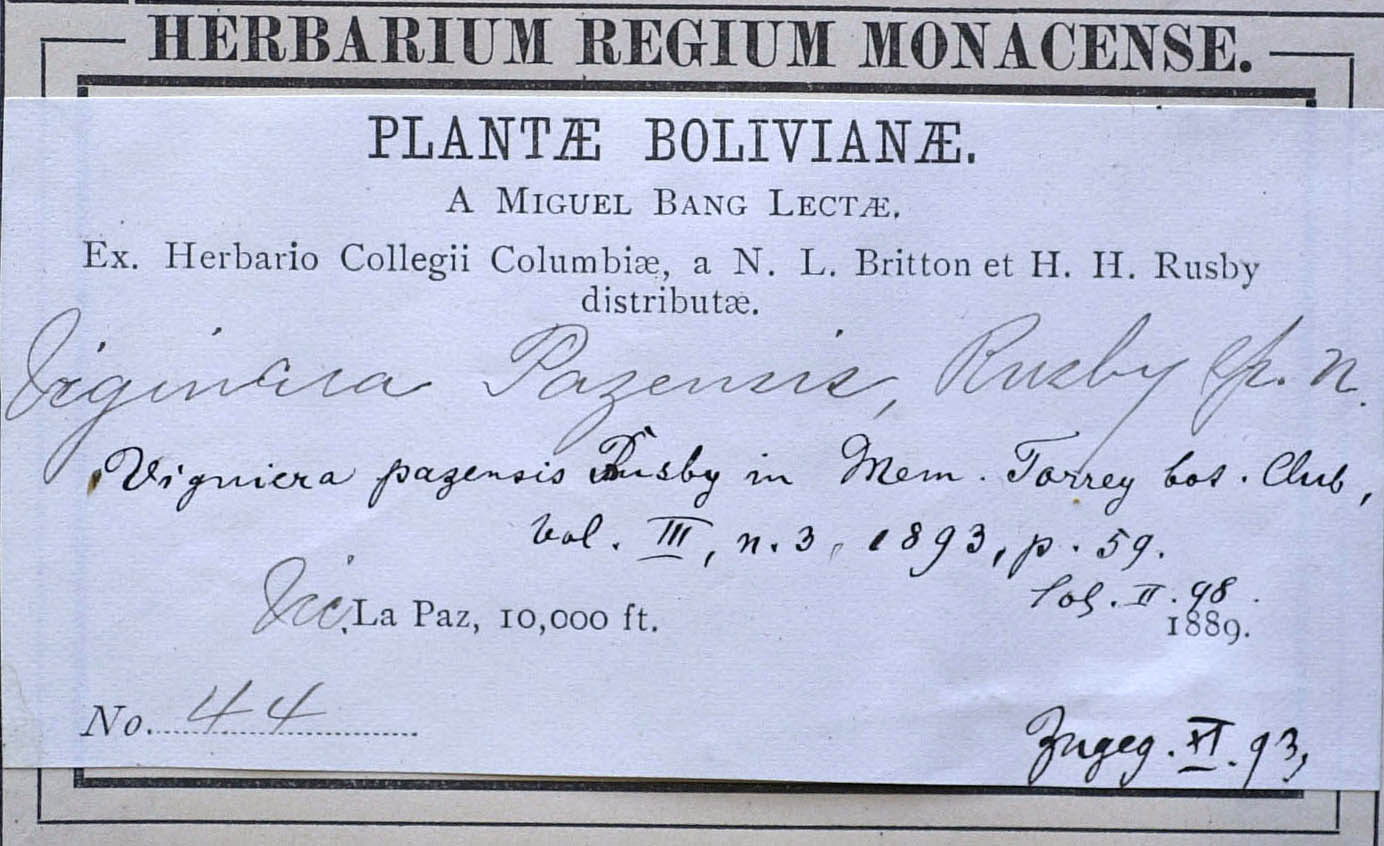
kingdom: Plantae
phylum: Tracheophyta
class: Magnoliopsida
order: Asterales
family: Asteraceae
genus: Aldama
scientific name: Aldama helianthoides
